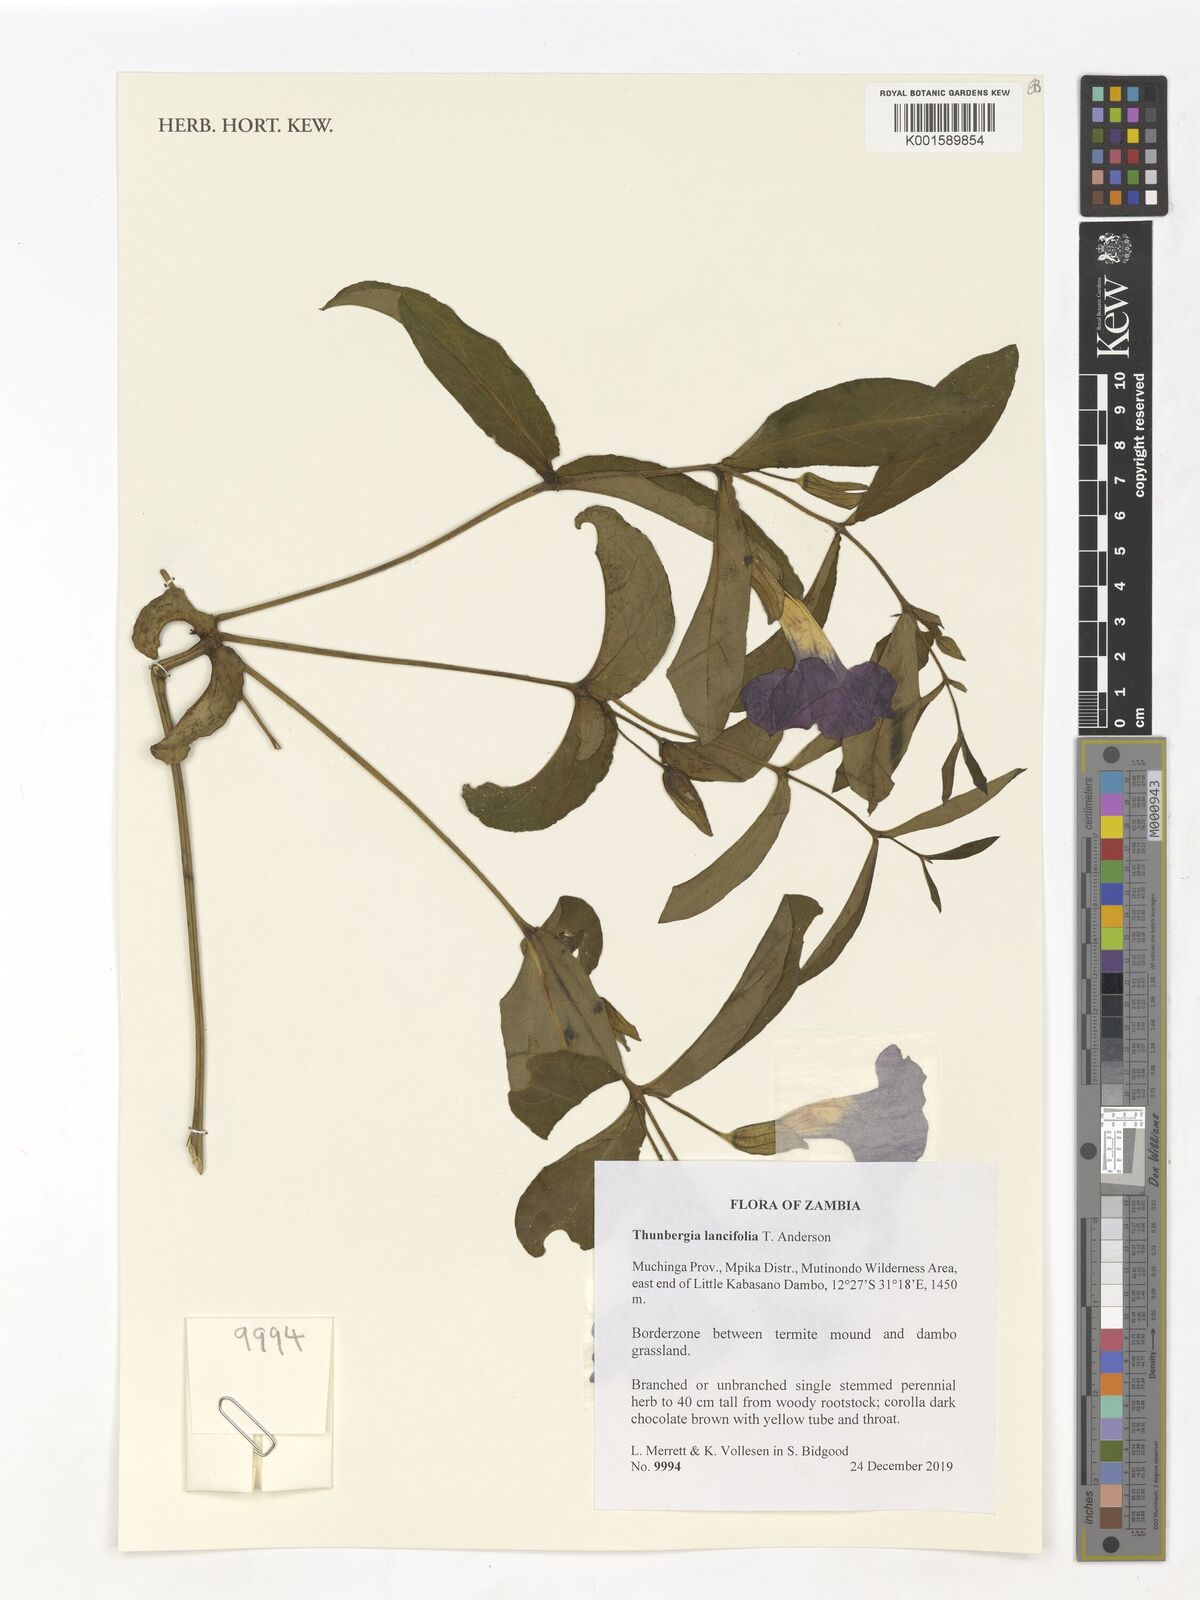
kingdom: Plantae
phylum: Tracheophyta
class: Magnoliopsida
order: Lamiales
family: Acanthaceae
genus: Thunbergia
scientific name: Thunbergia lancifolia
